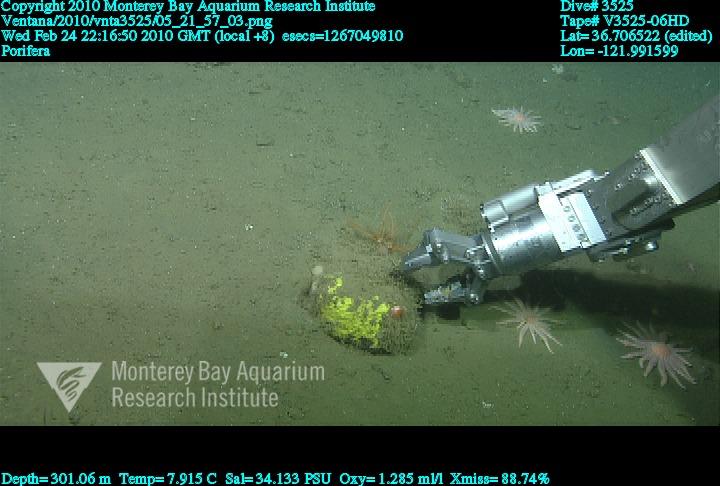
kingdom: Animalia
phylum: Porifera
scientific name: Porifera
